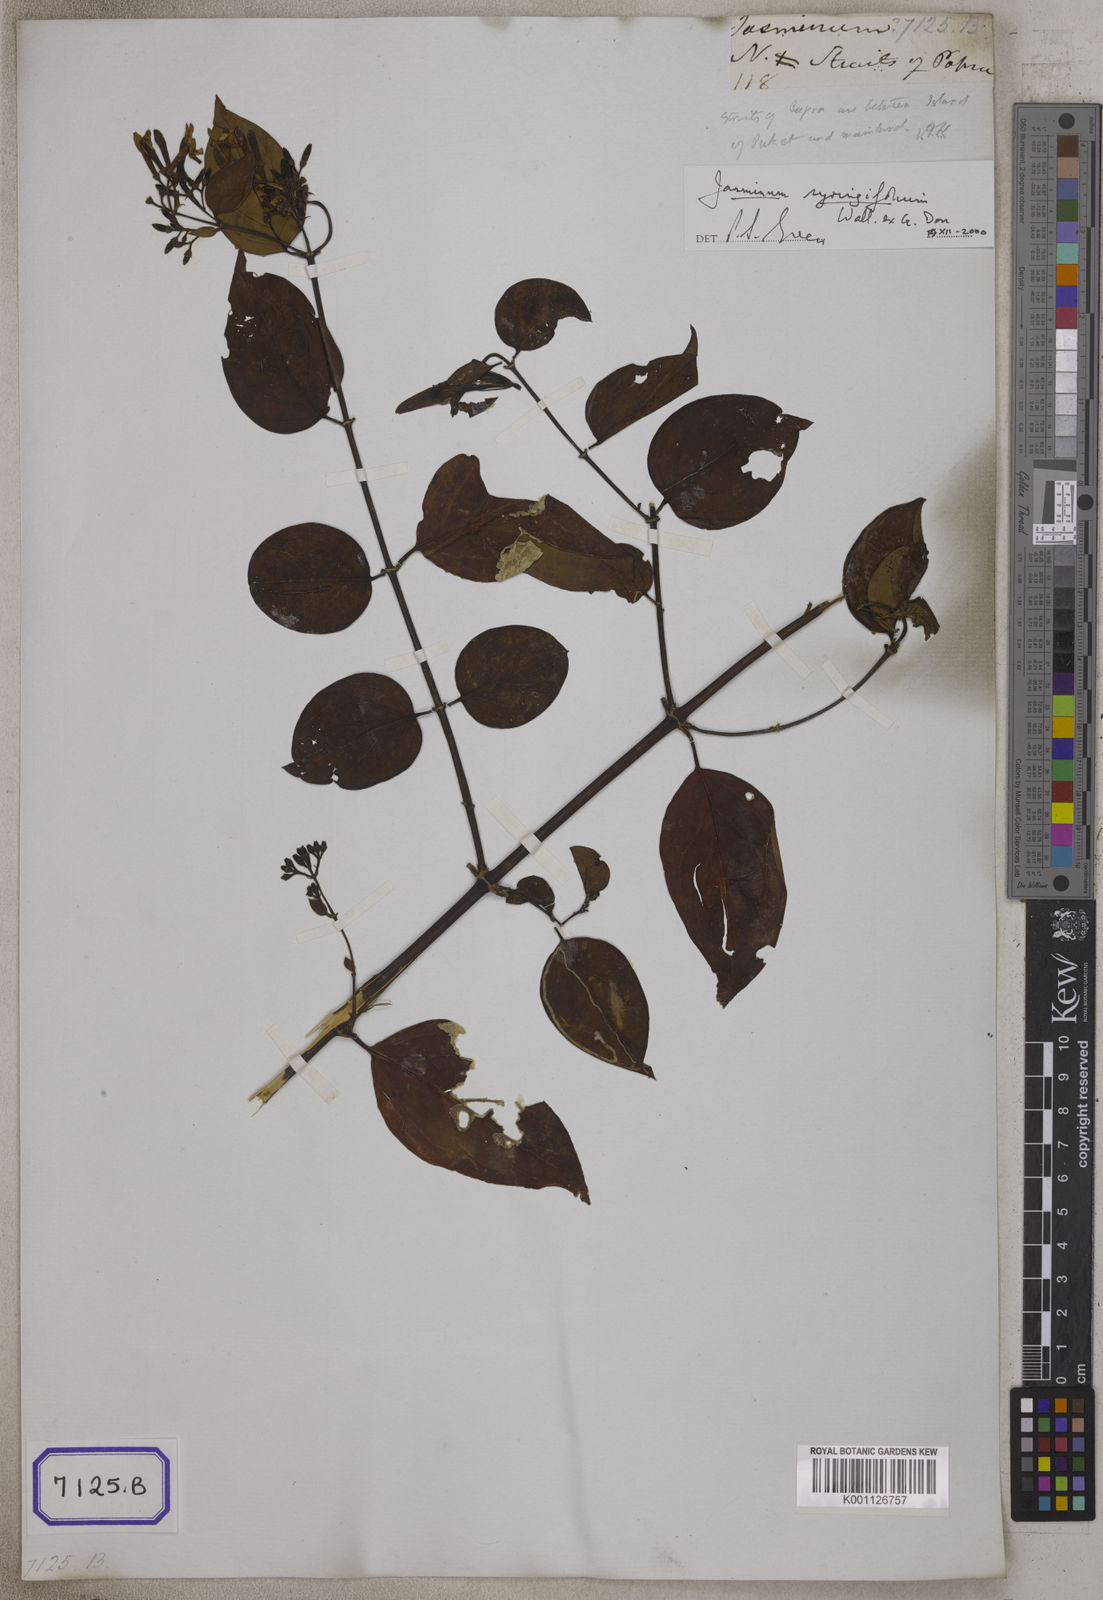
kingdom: Plantae
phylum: Tracheophyta
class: Magnoliopsida
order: Lamiales
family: Oleaceae
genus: Jasminum
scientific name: Jasminum sambac
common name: Arabian jasmine
